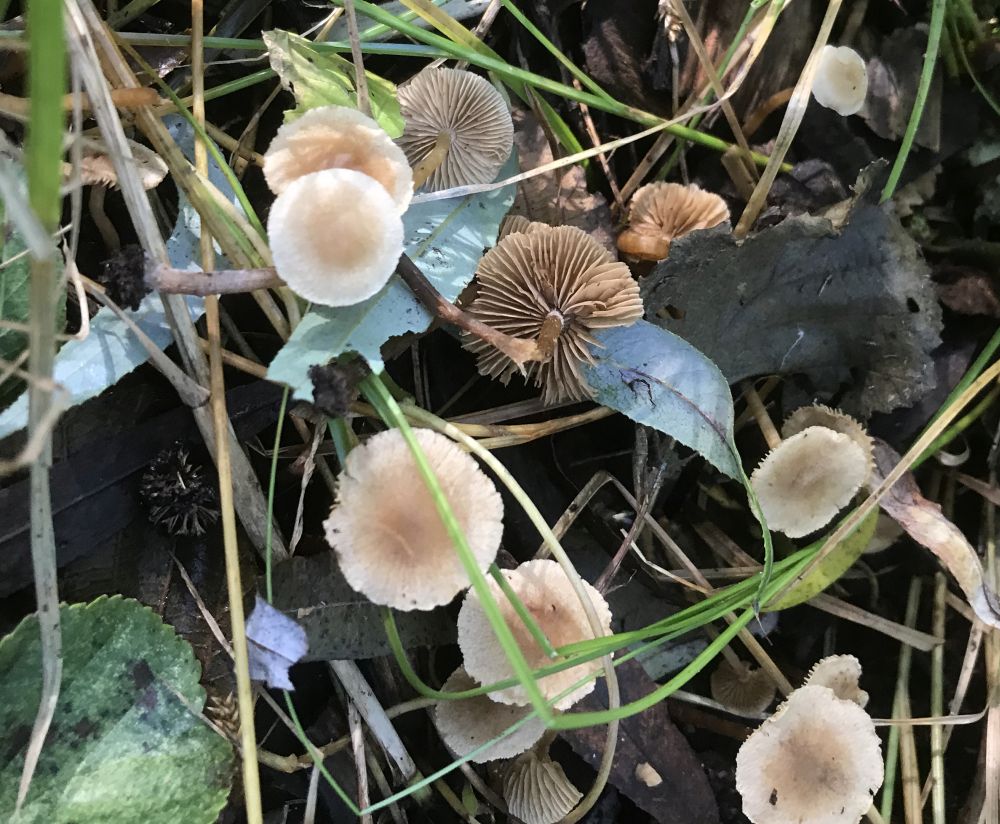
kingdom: Fungi
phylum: Basidiomycota
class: Agaricomycetes
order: Agaricales
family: Hymenogastraceae
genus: Naucoria
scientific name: Naucoria escharioides
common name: lys elle-knaphat
